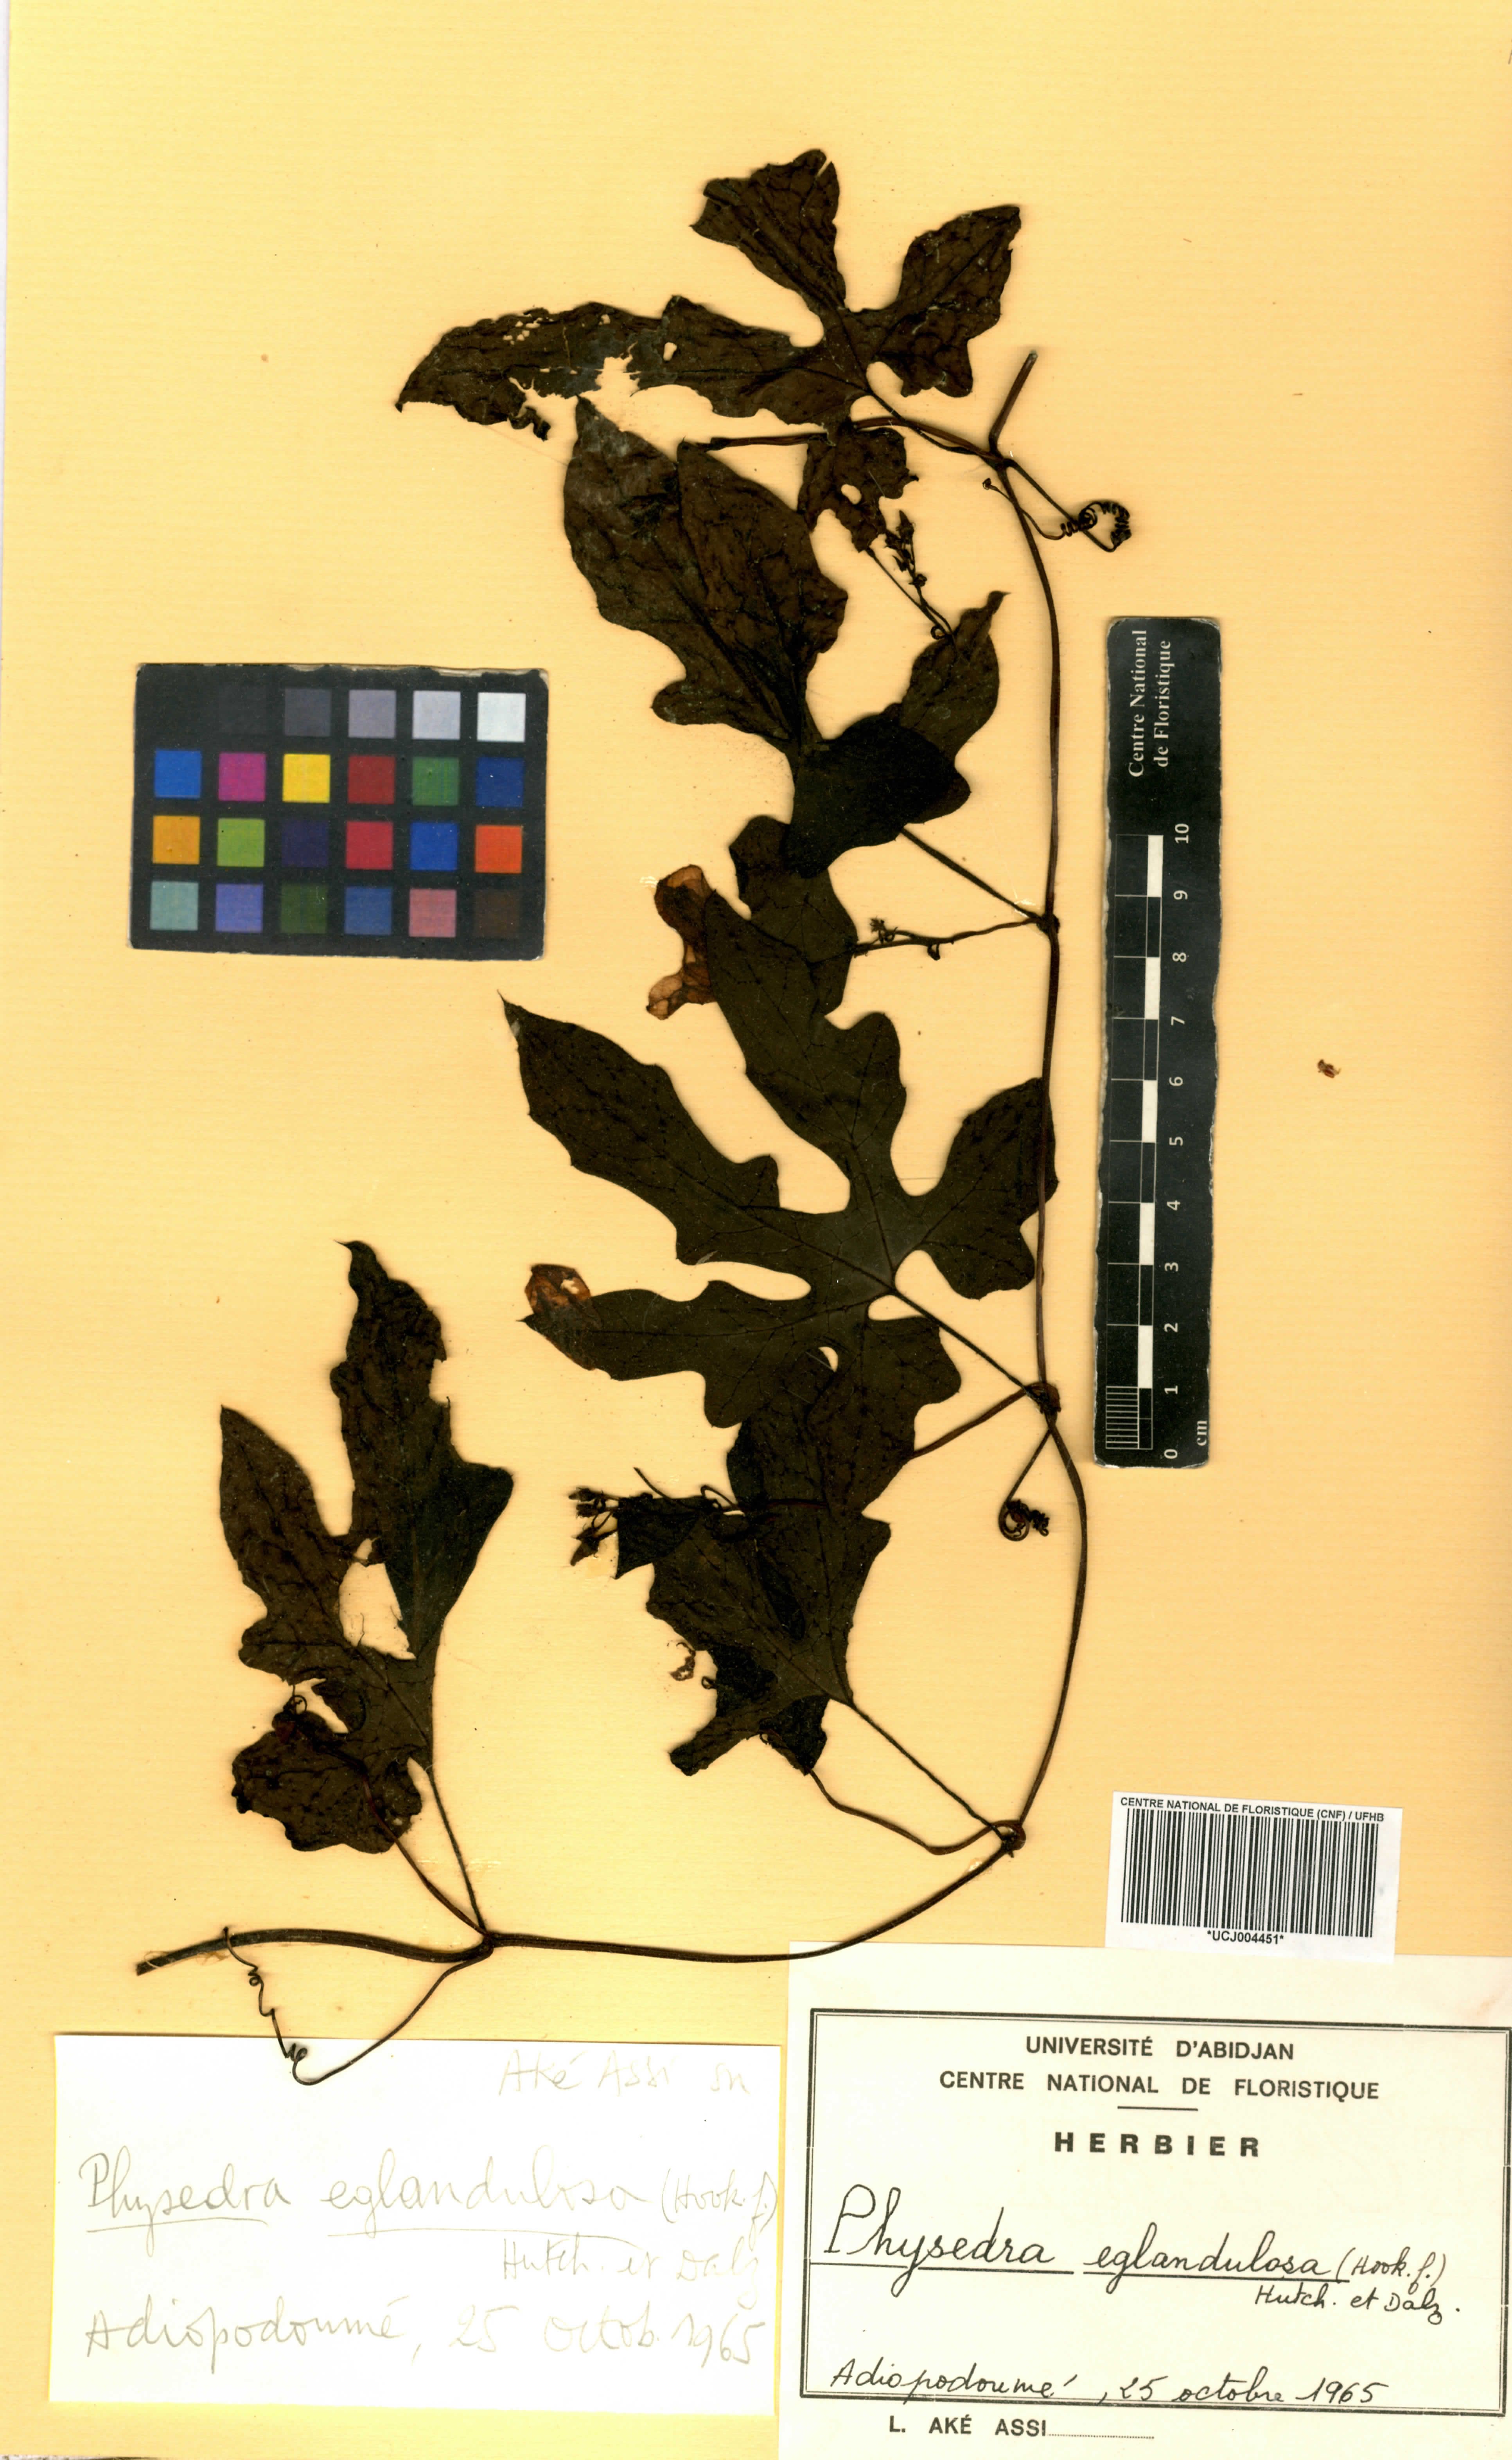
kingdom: Plantae
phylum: Tracheophyta
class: Magnoliopsida
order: Cucurbitales
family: Cucurbitaceae
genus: Ruthalicia
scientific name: Ruthalicia eglandulosa
